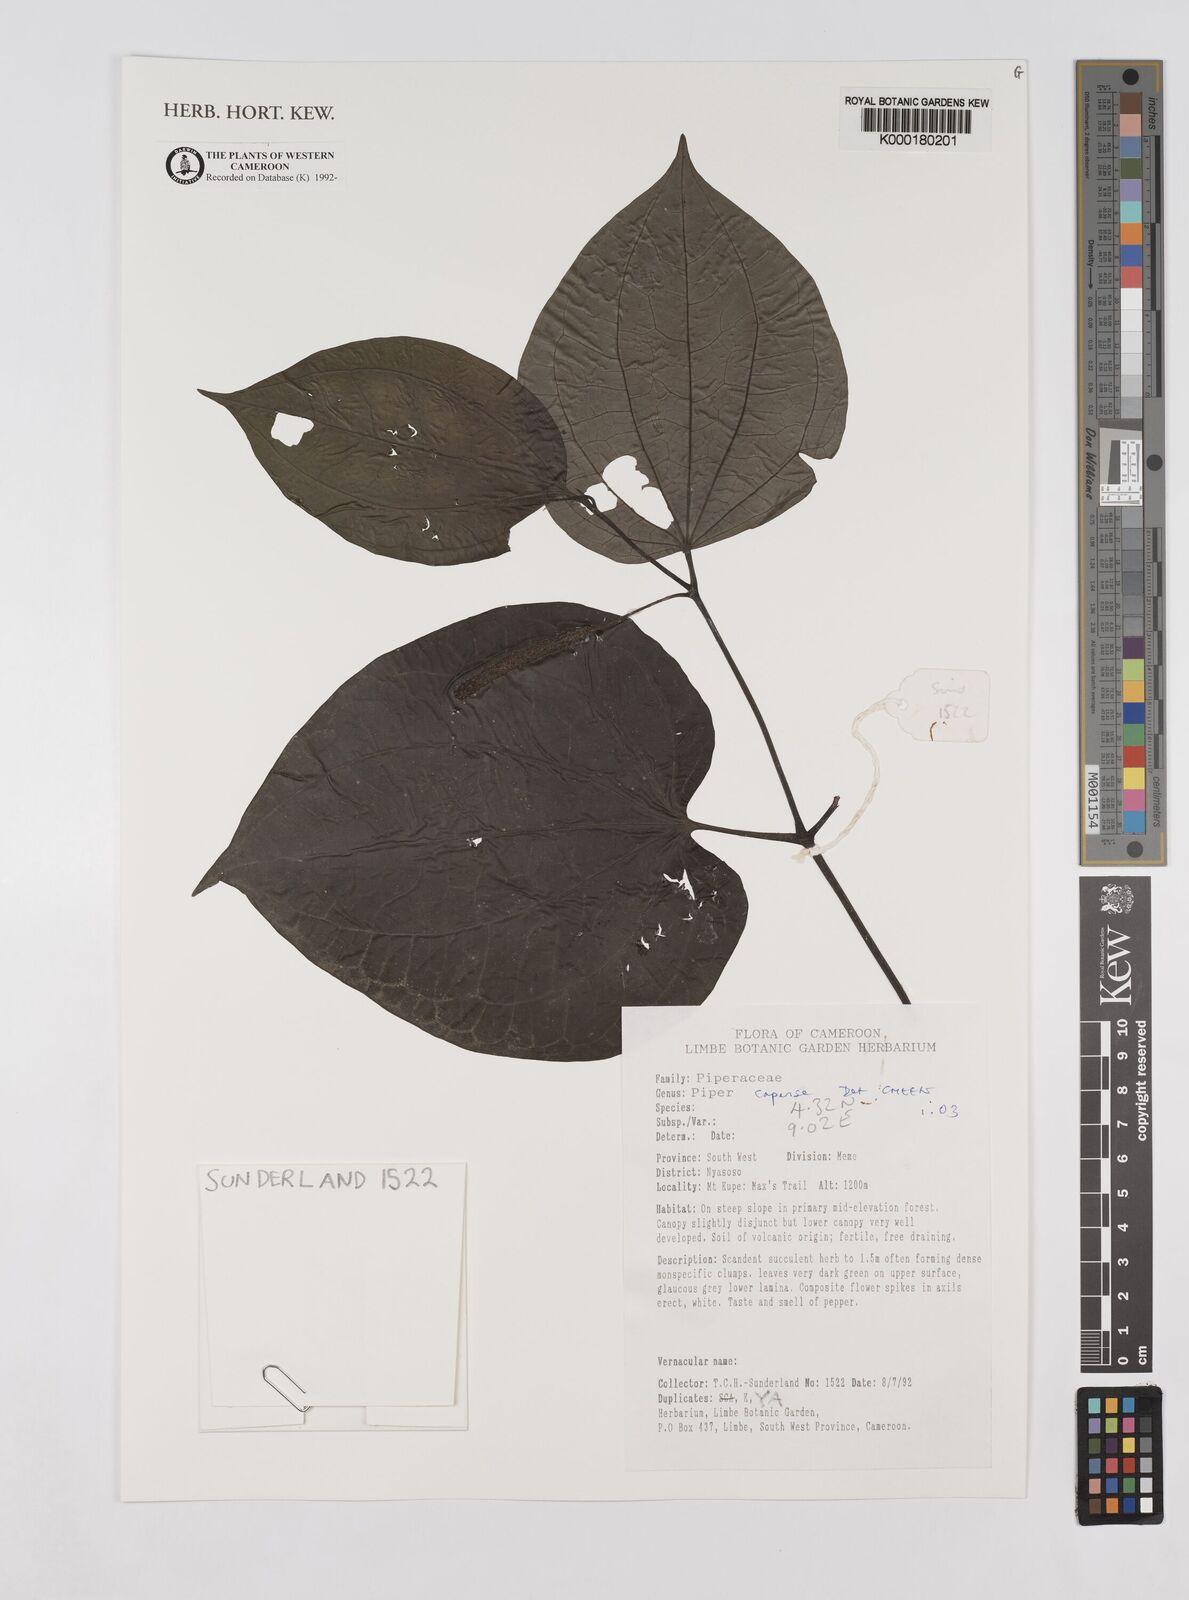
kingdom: Plantae
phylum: Tracheophyta
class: Magnoliopsida
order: Piperales
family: Piperaceae
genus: Piper
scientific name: Piper capense
